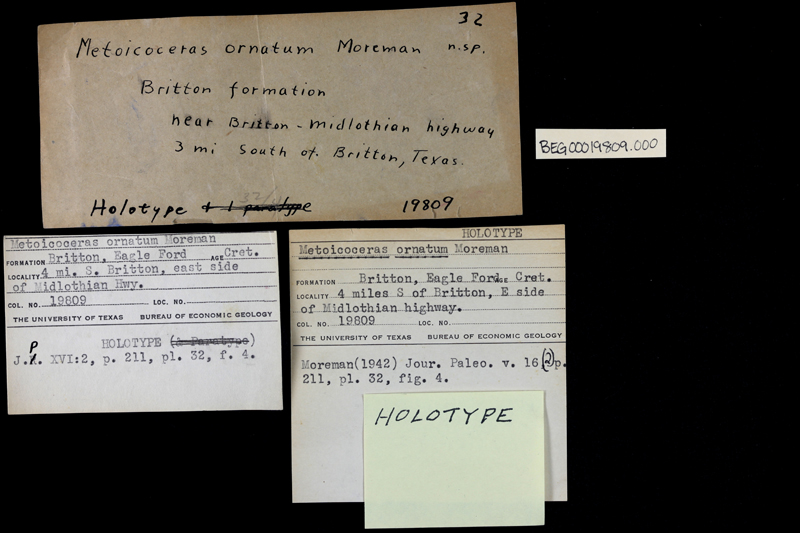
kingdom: Animalia
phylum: Mollusca
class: Cephalopoda
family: Acanthoceratidae
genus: Metoicoceras
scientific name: Metoicoceras
